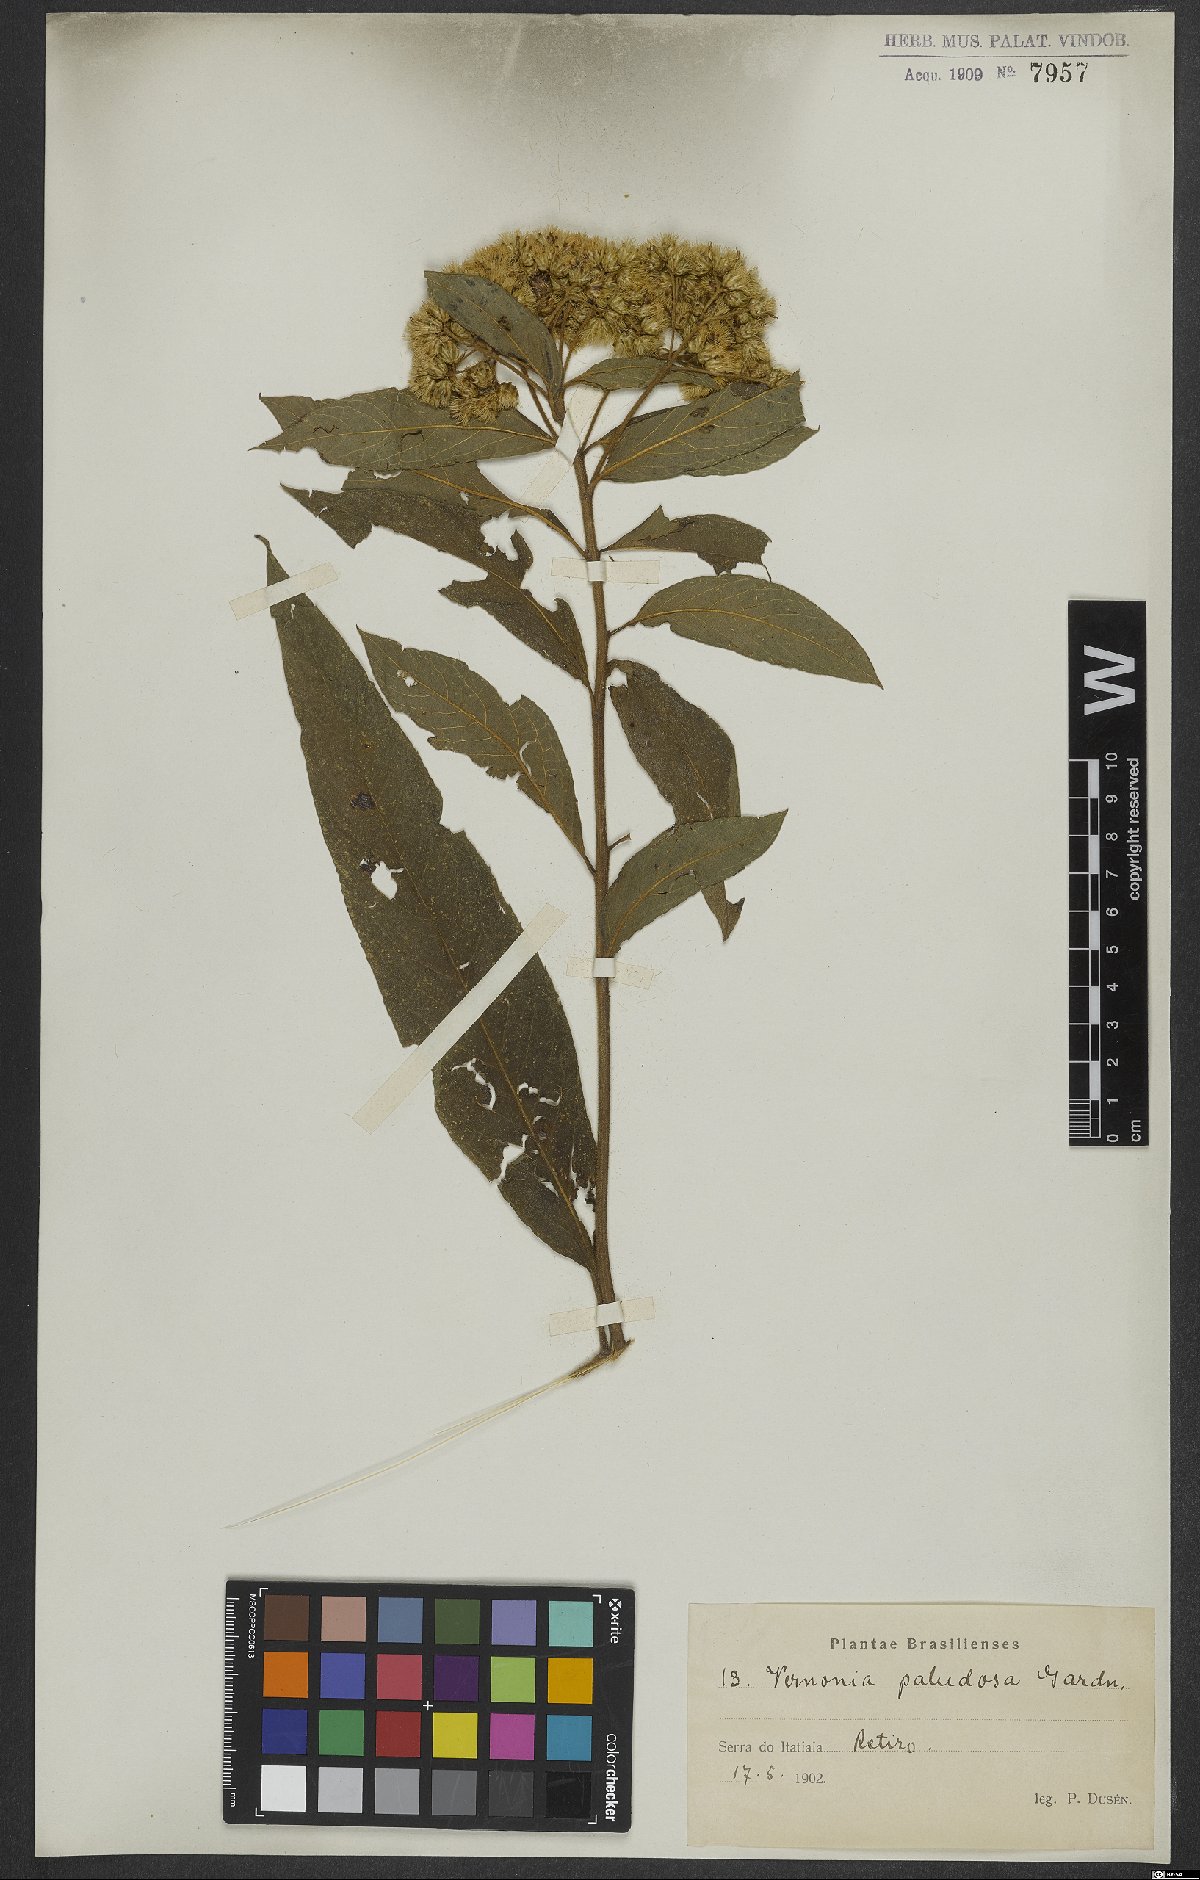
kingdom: Plantae
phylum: Tracheophyta
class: Magnoliopsida
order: Asterales
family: Asteraceae
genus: Vernonanthura
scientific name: Vernonanthura paludosa
